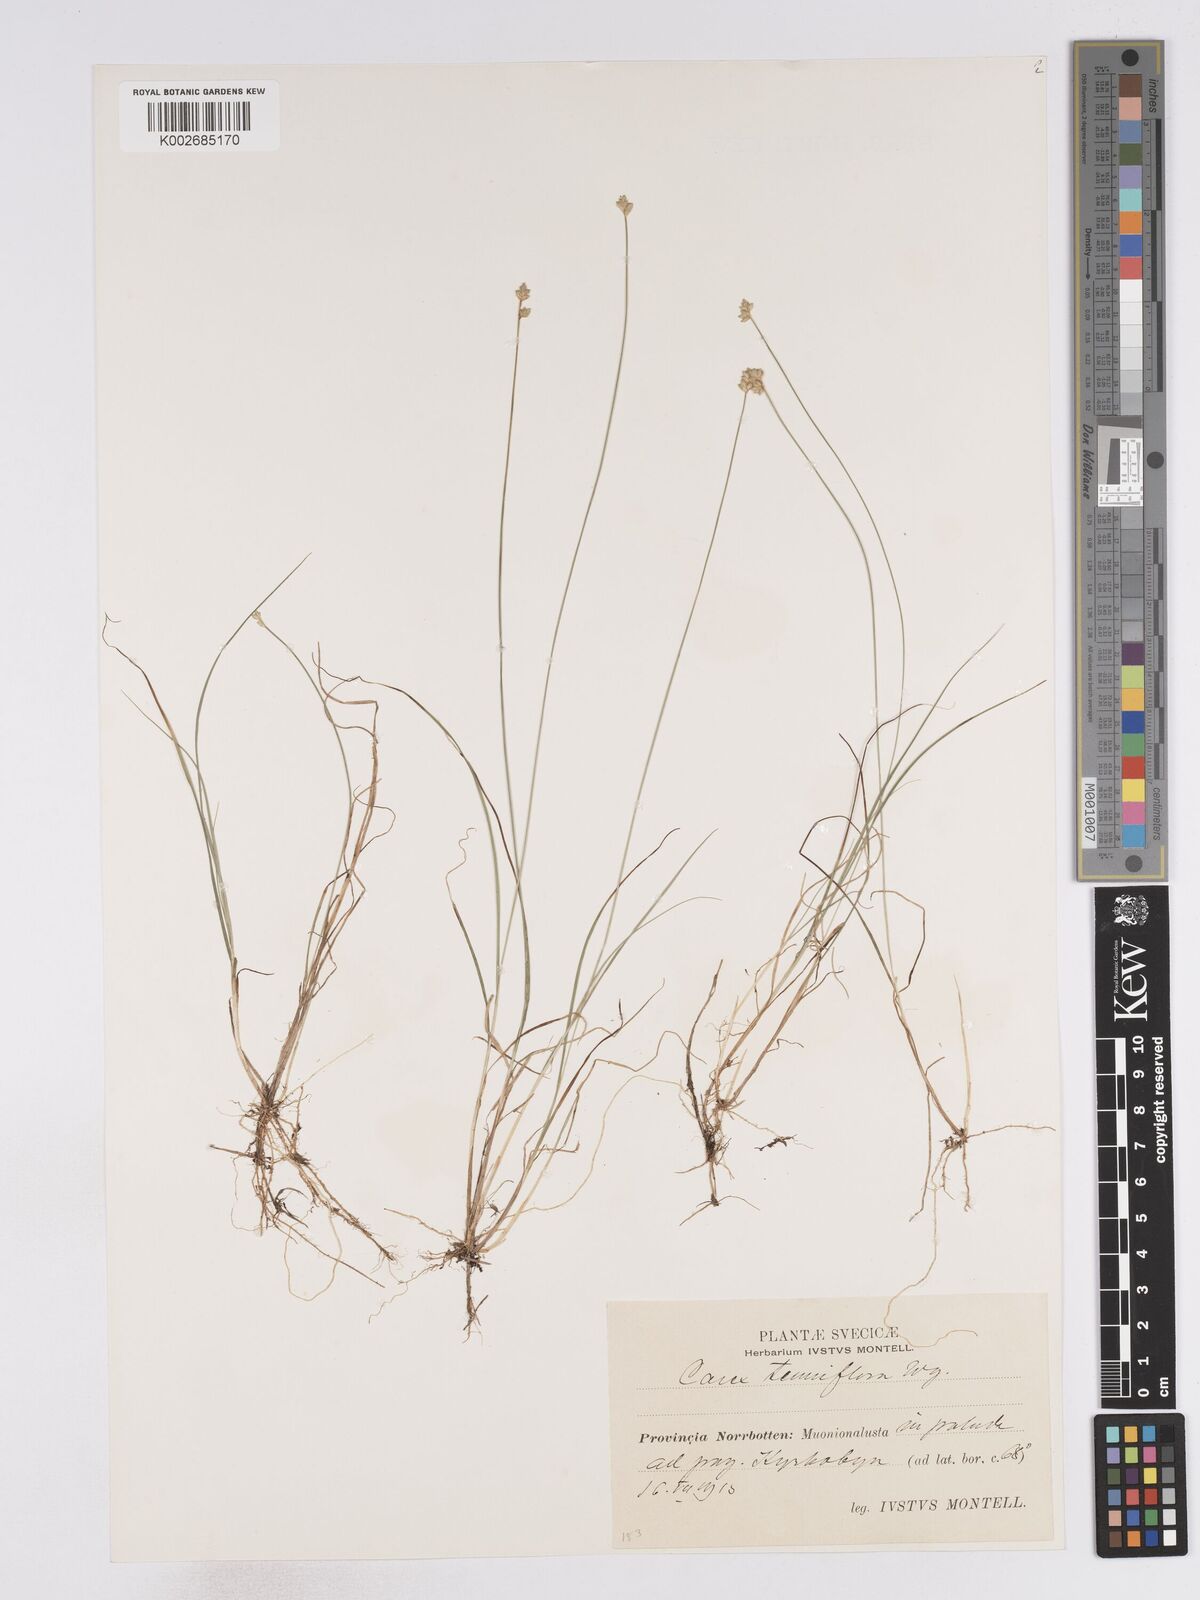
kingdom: Plantae
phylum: Tracheophyta
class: Liliopsida
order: Poales
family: Cyperaceae
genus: Carex
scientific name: Carex tenuiflora
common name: Sparse-flowered sedge
